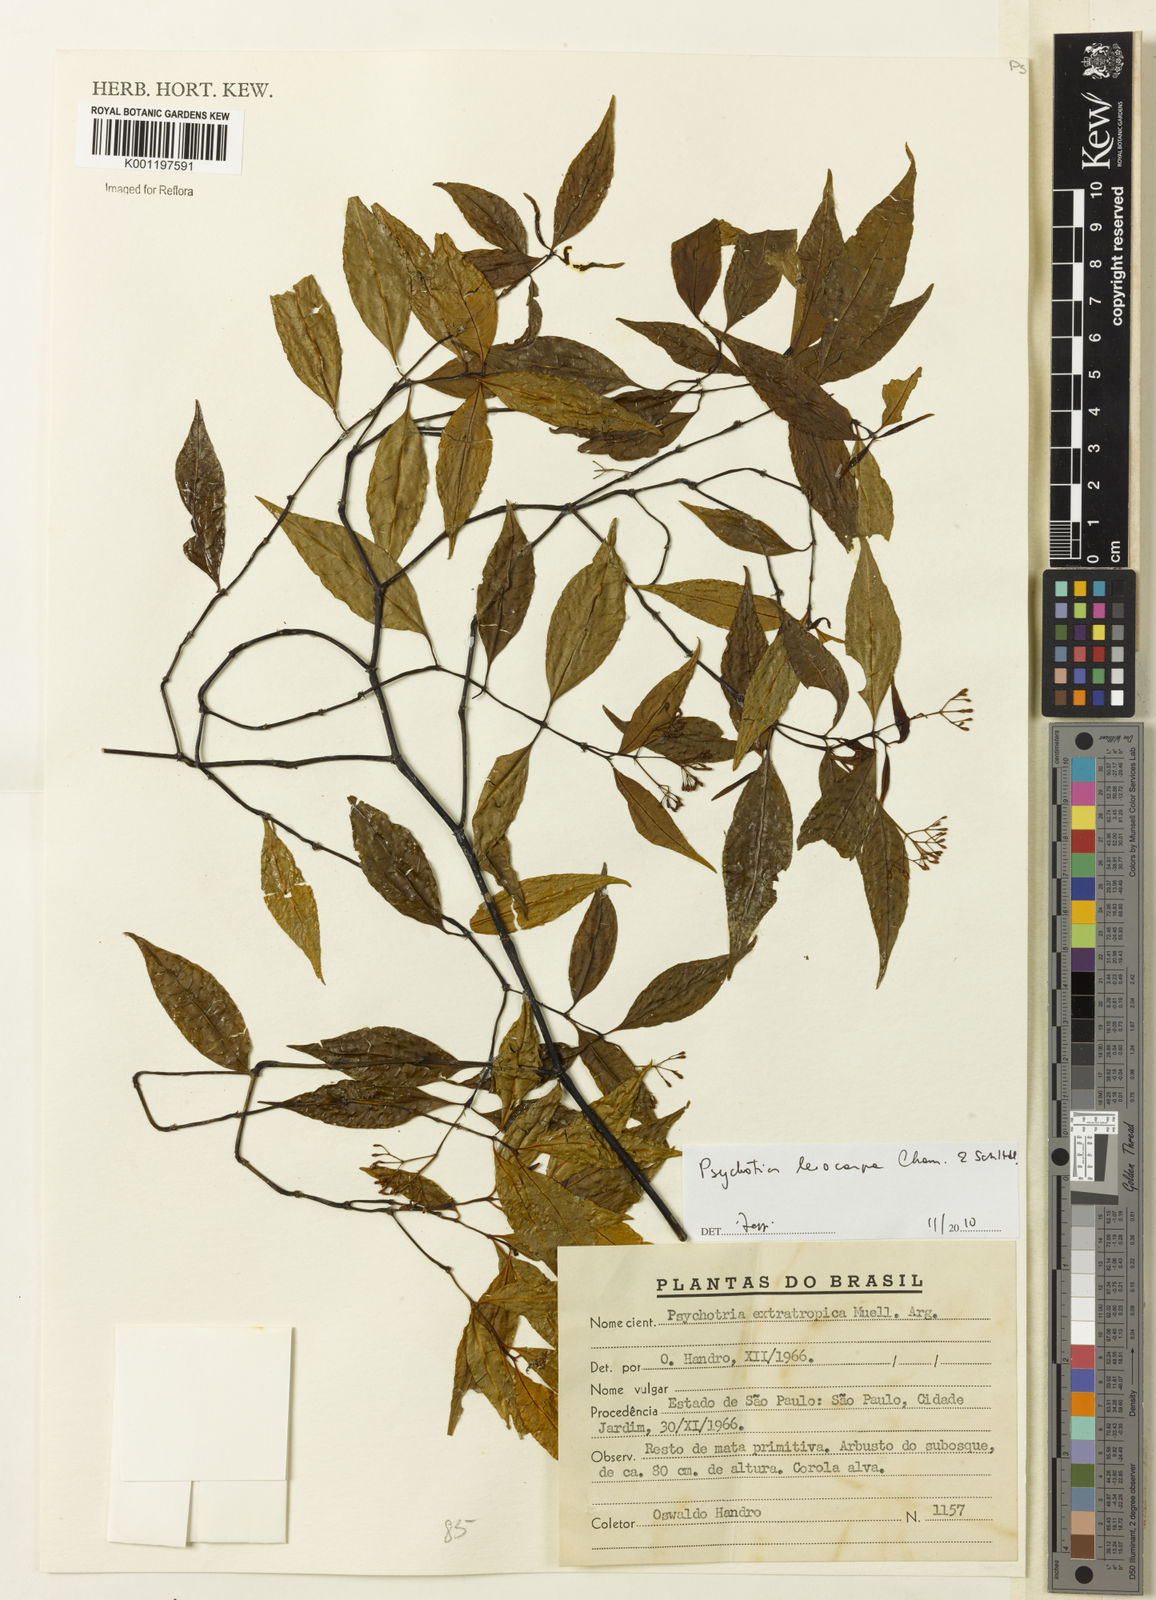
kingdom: Plantae
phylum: Tracheophyta
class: Magnoliopsida
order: Gentianales
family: Rubiaceae
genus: Psychotria
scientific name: Psychotria leiocarpa
